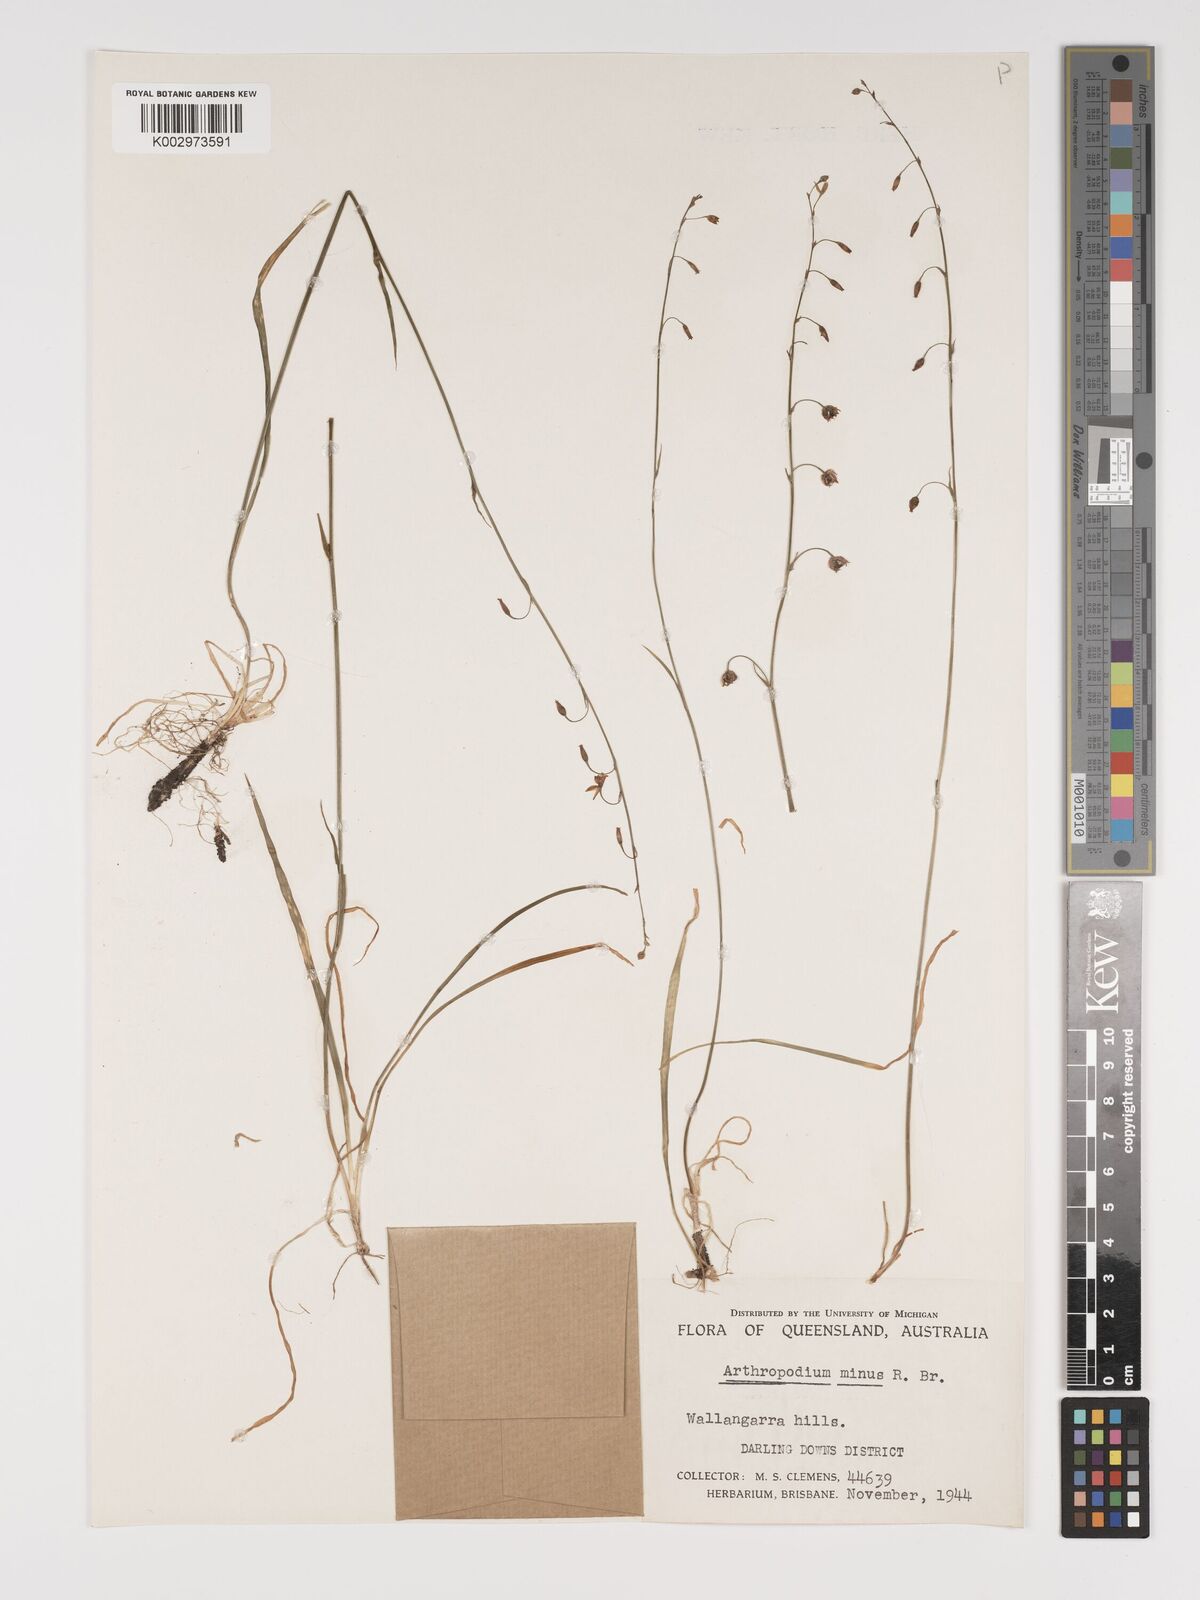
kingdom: Plantae
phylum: Tracheophyta
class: Liliopsida
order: Asparagales
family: Asparagaceae
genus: Arthropodium
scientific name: Arthropodium minus
